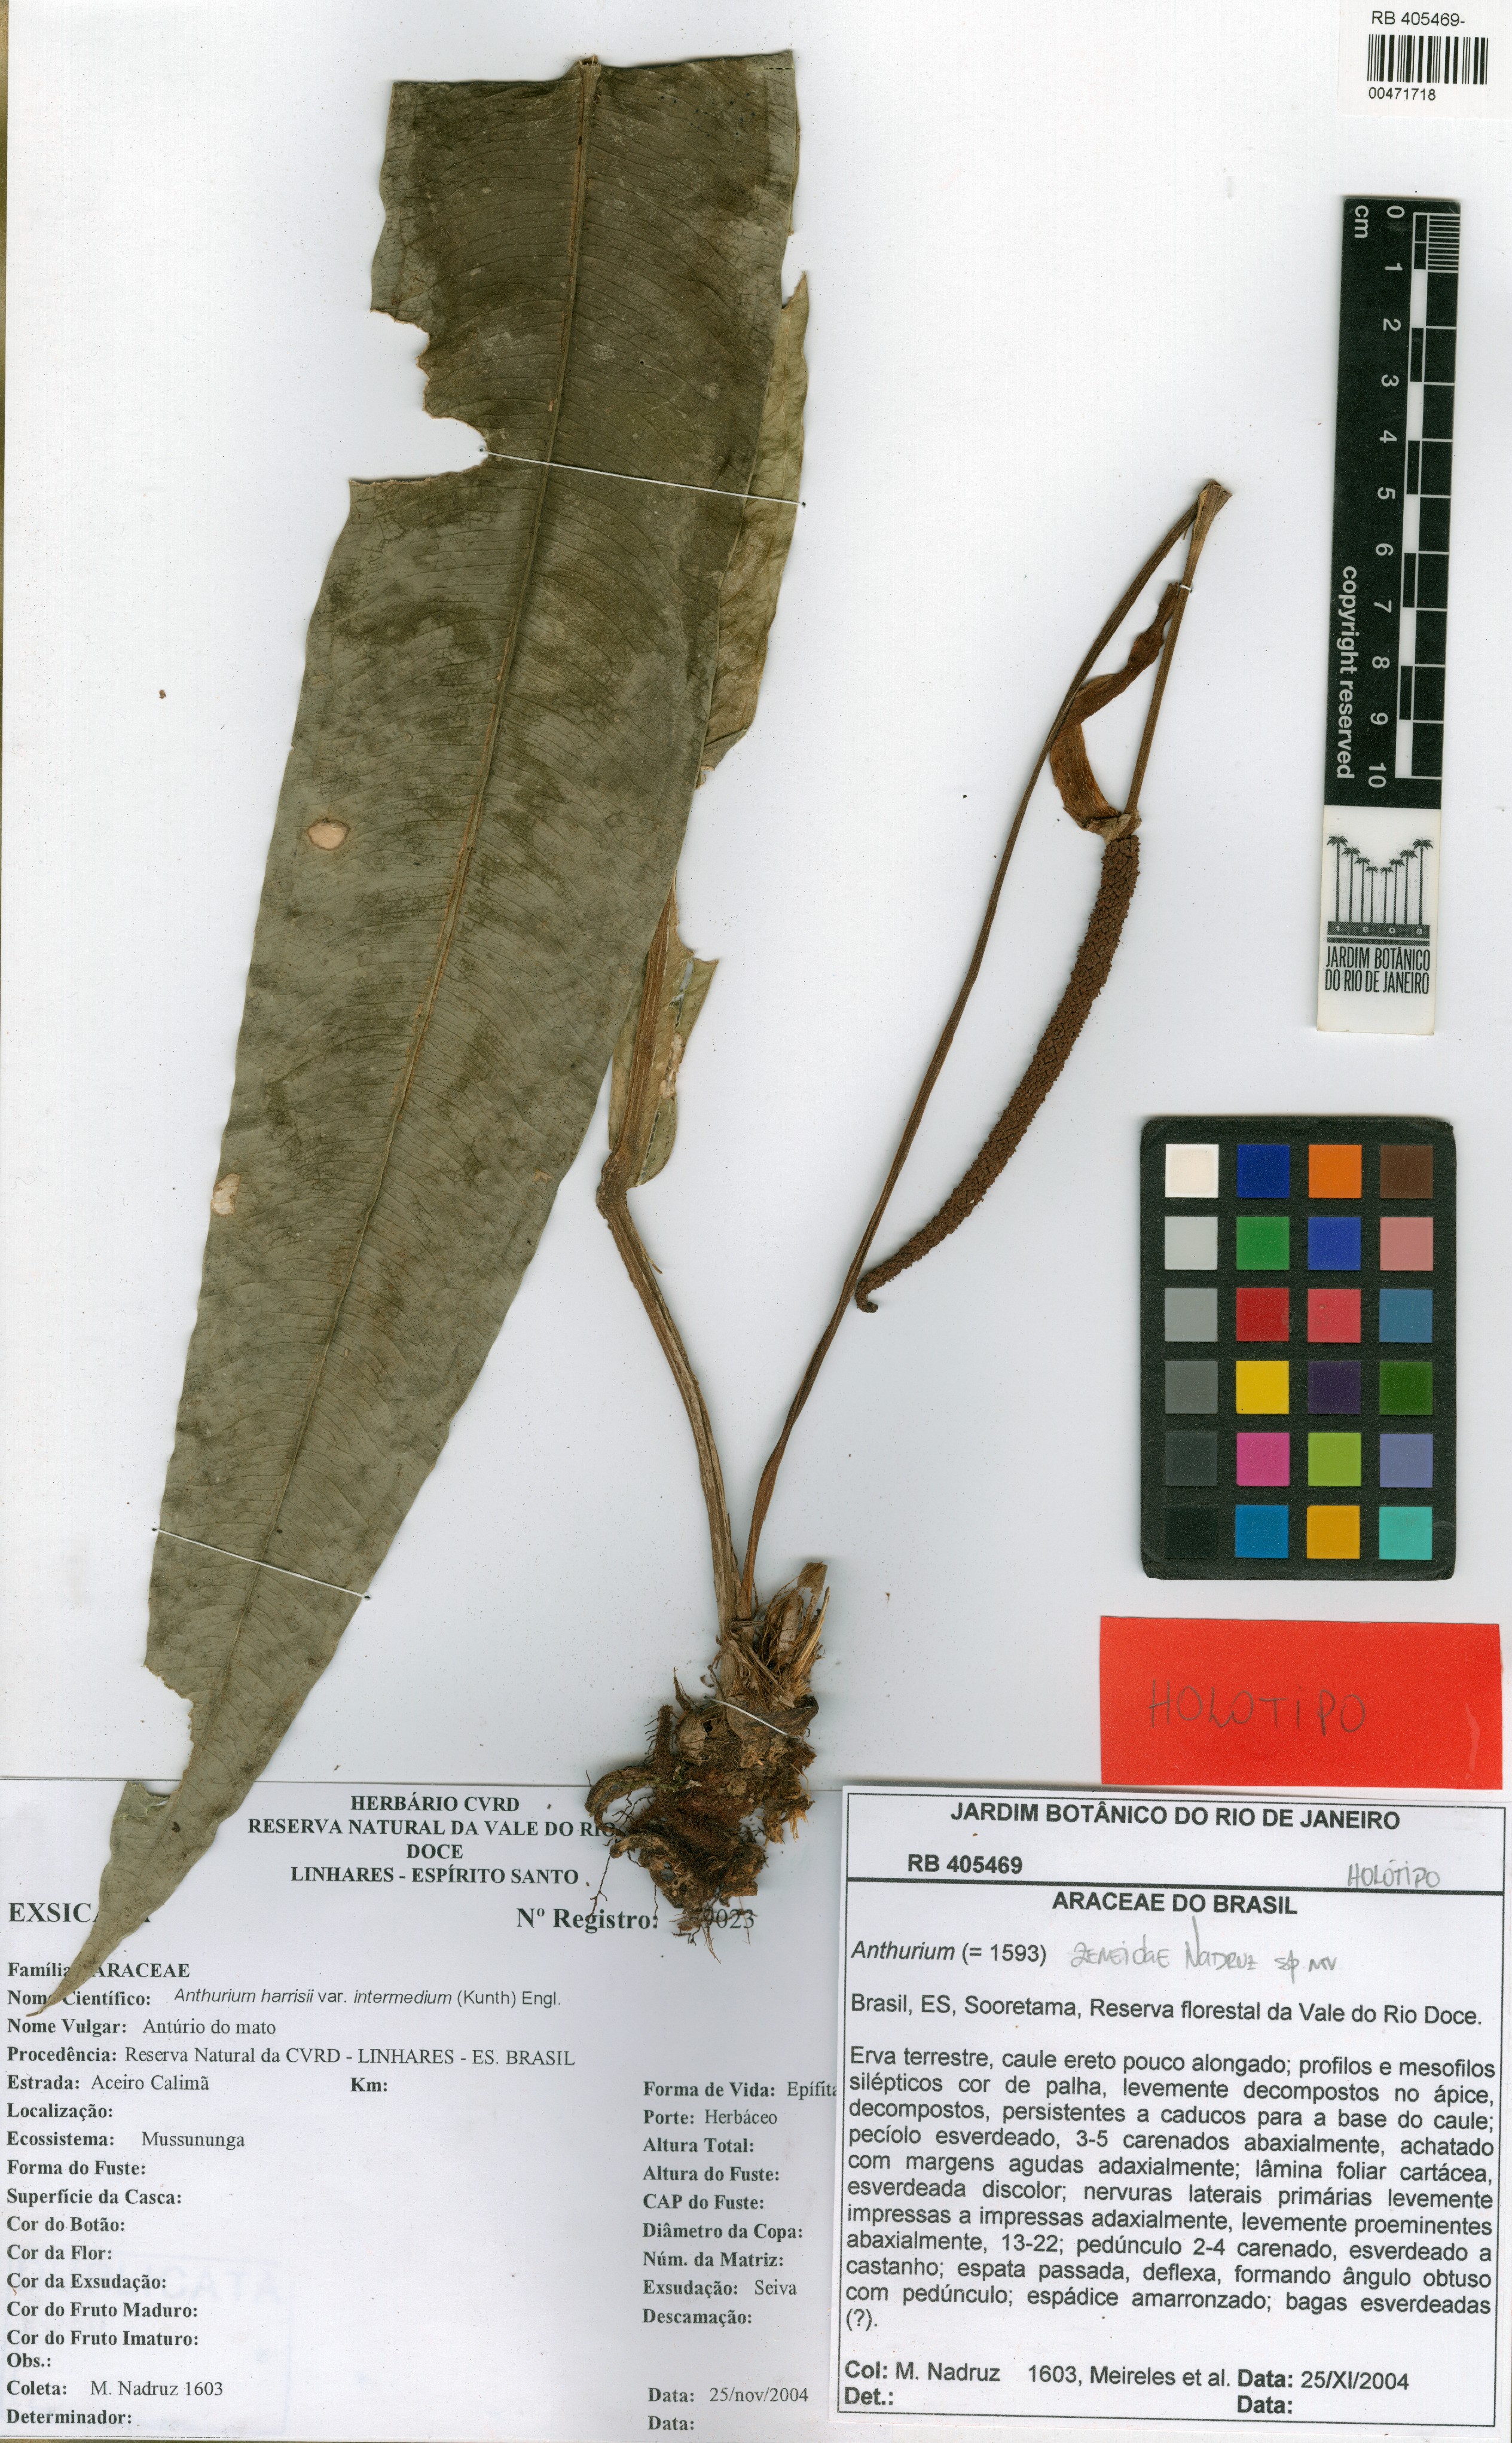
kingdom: Plantae
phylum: Tracheophyta
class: Liliopsida
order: Alismatales
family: Araceae
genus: Anthurium
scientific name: Anthurium zeneidae
